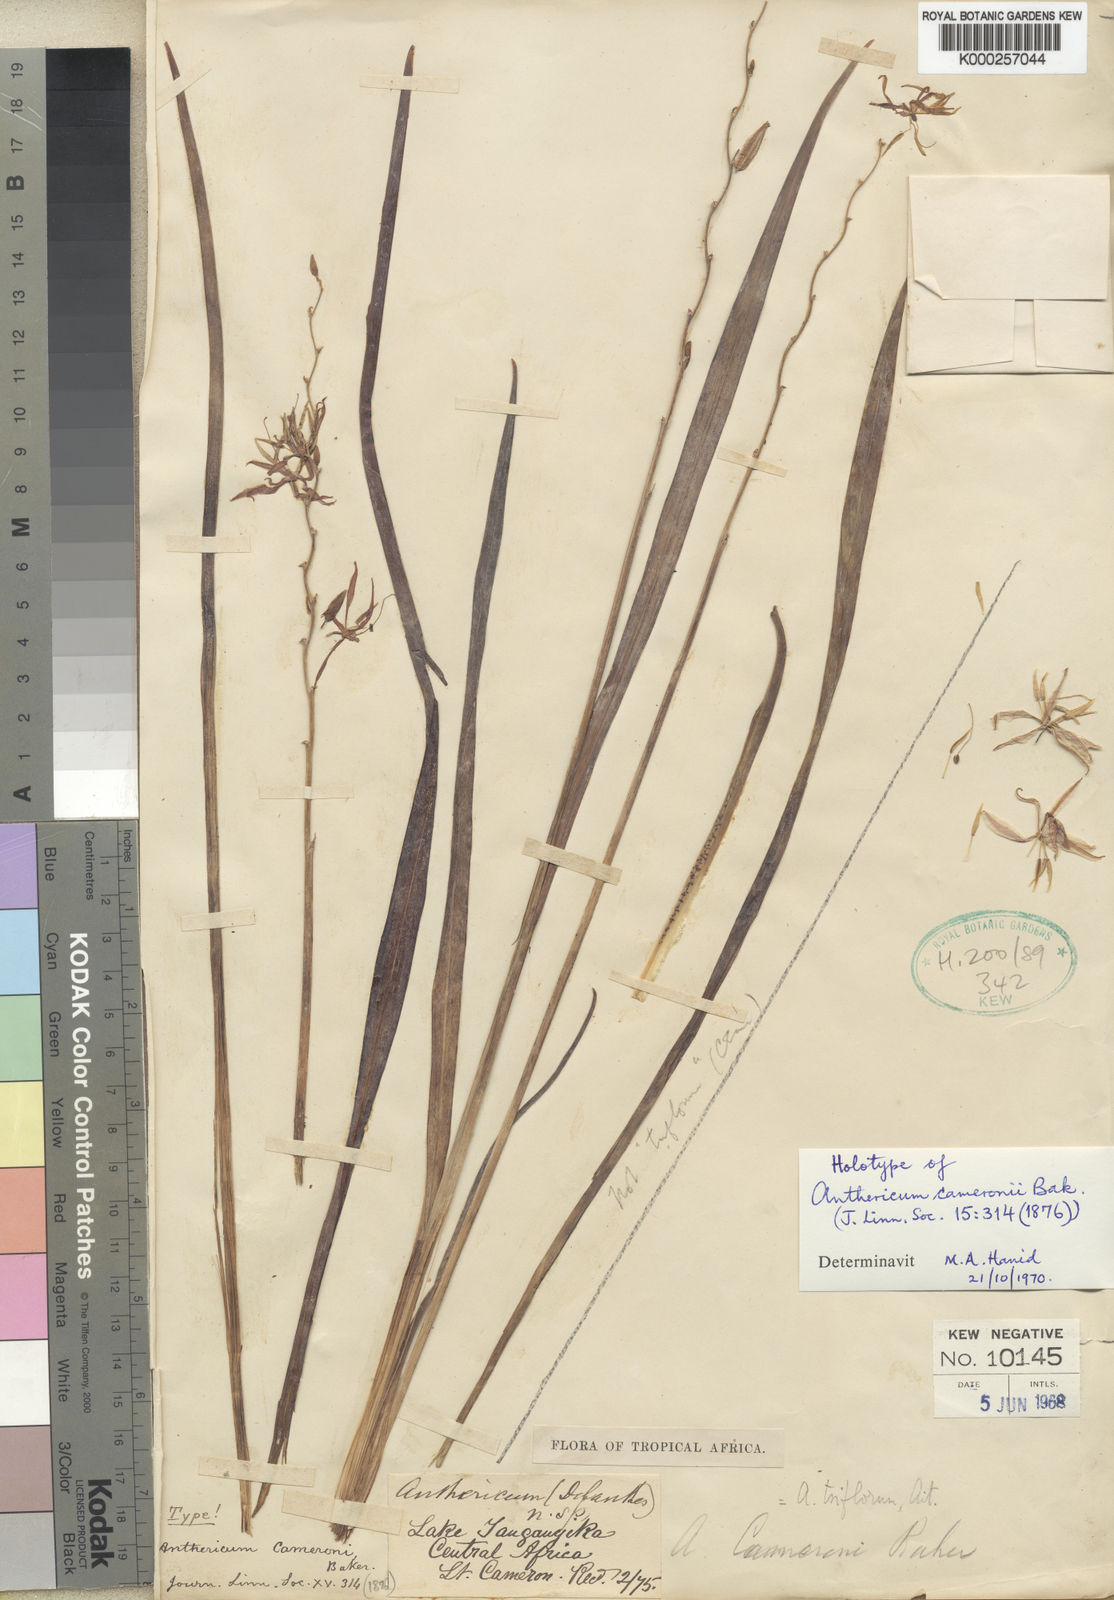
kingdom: Plantae
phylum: Tracheophyta
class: Liliopsida
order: Asparagales
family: Asparagaceae
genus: Chlorophytum
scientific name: Chlorophytum cameronii
